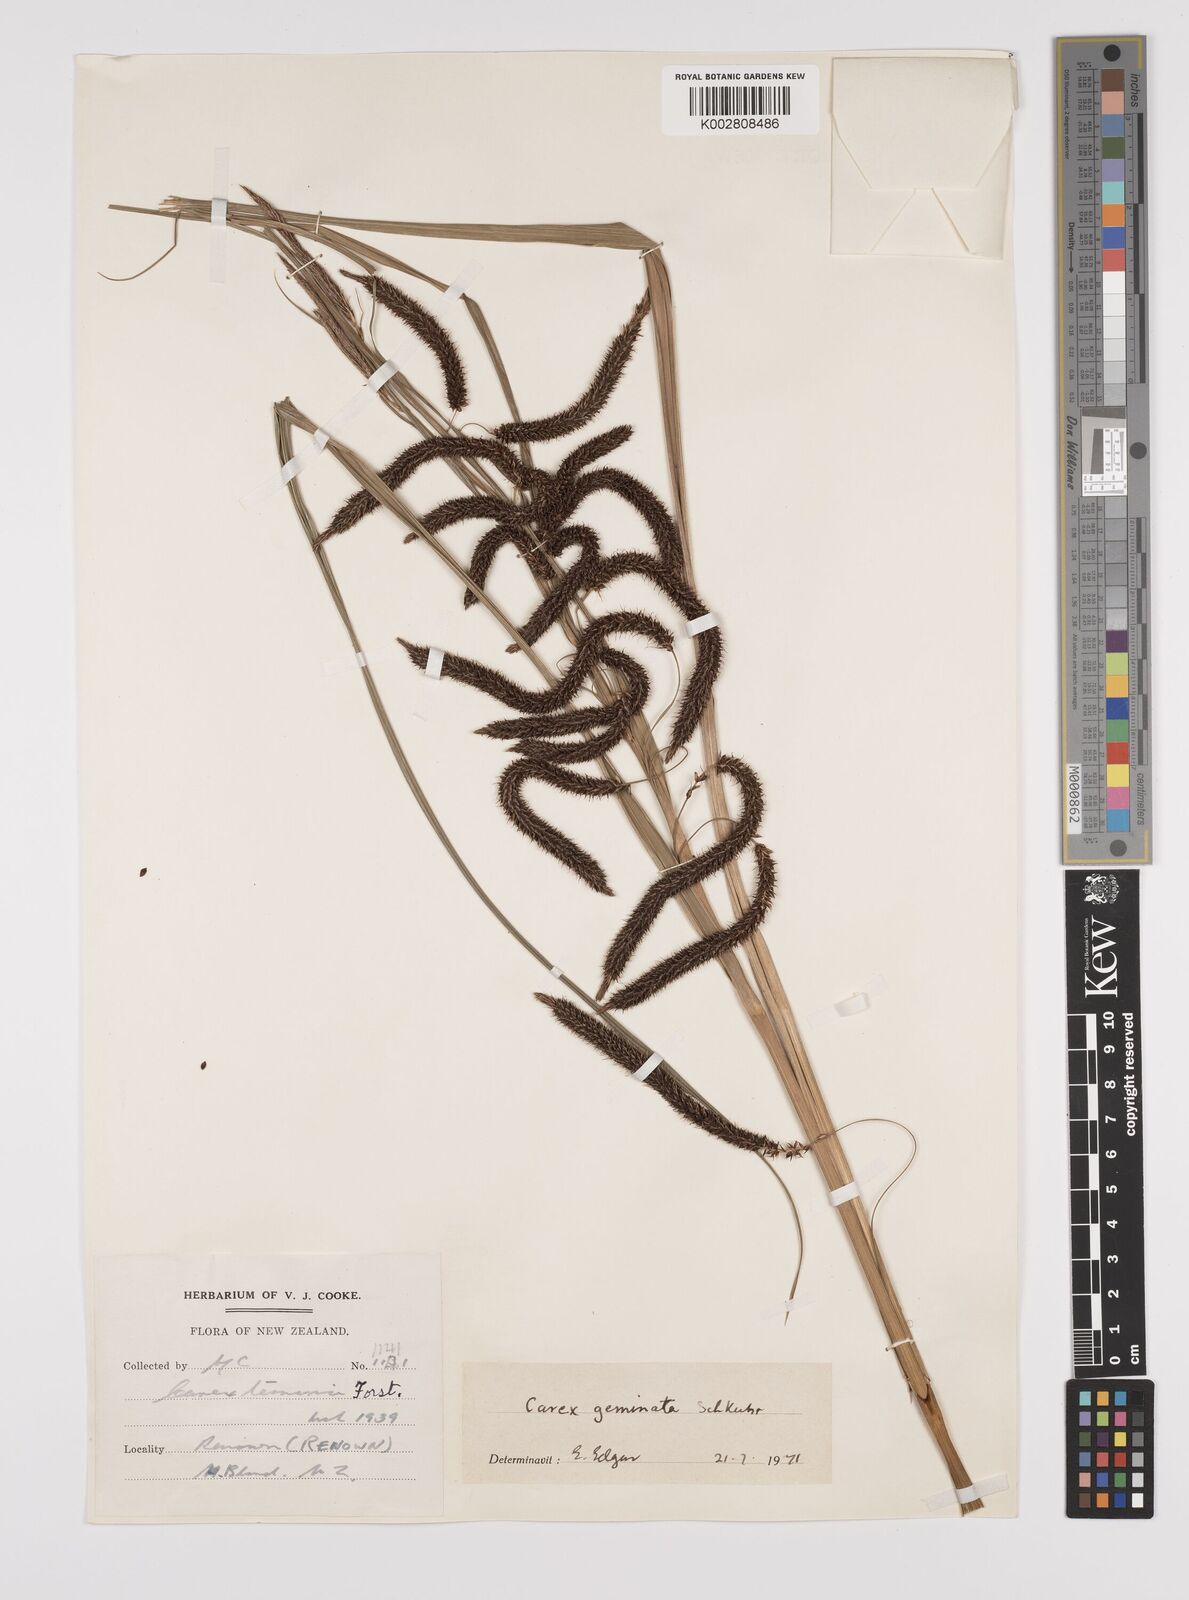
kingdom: Plantae
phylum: Tracheophyta
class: Liliopsida
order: Poales
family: Cyperaceae
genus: Carex
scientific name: Carex geminata
